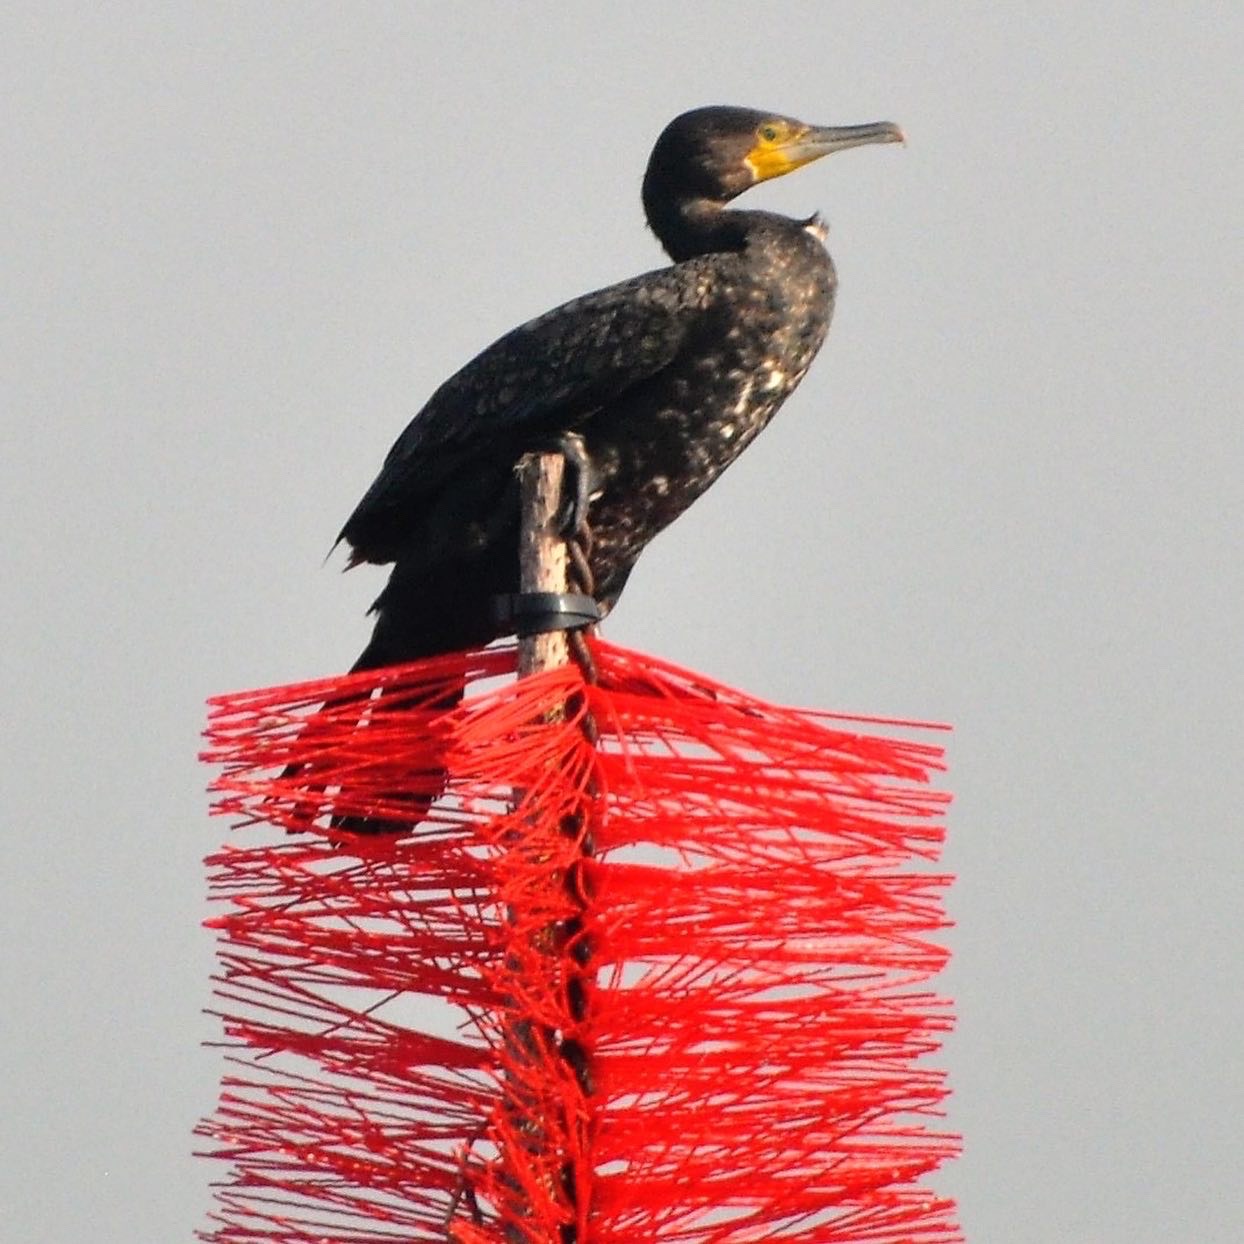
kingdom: Animalia
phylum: Chordata
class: Aves
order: Suliformes
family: Phalacrocoracidae
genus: Phalacrocorax
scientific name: Phalacrocorax carbo
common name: Skarv
